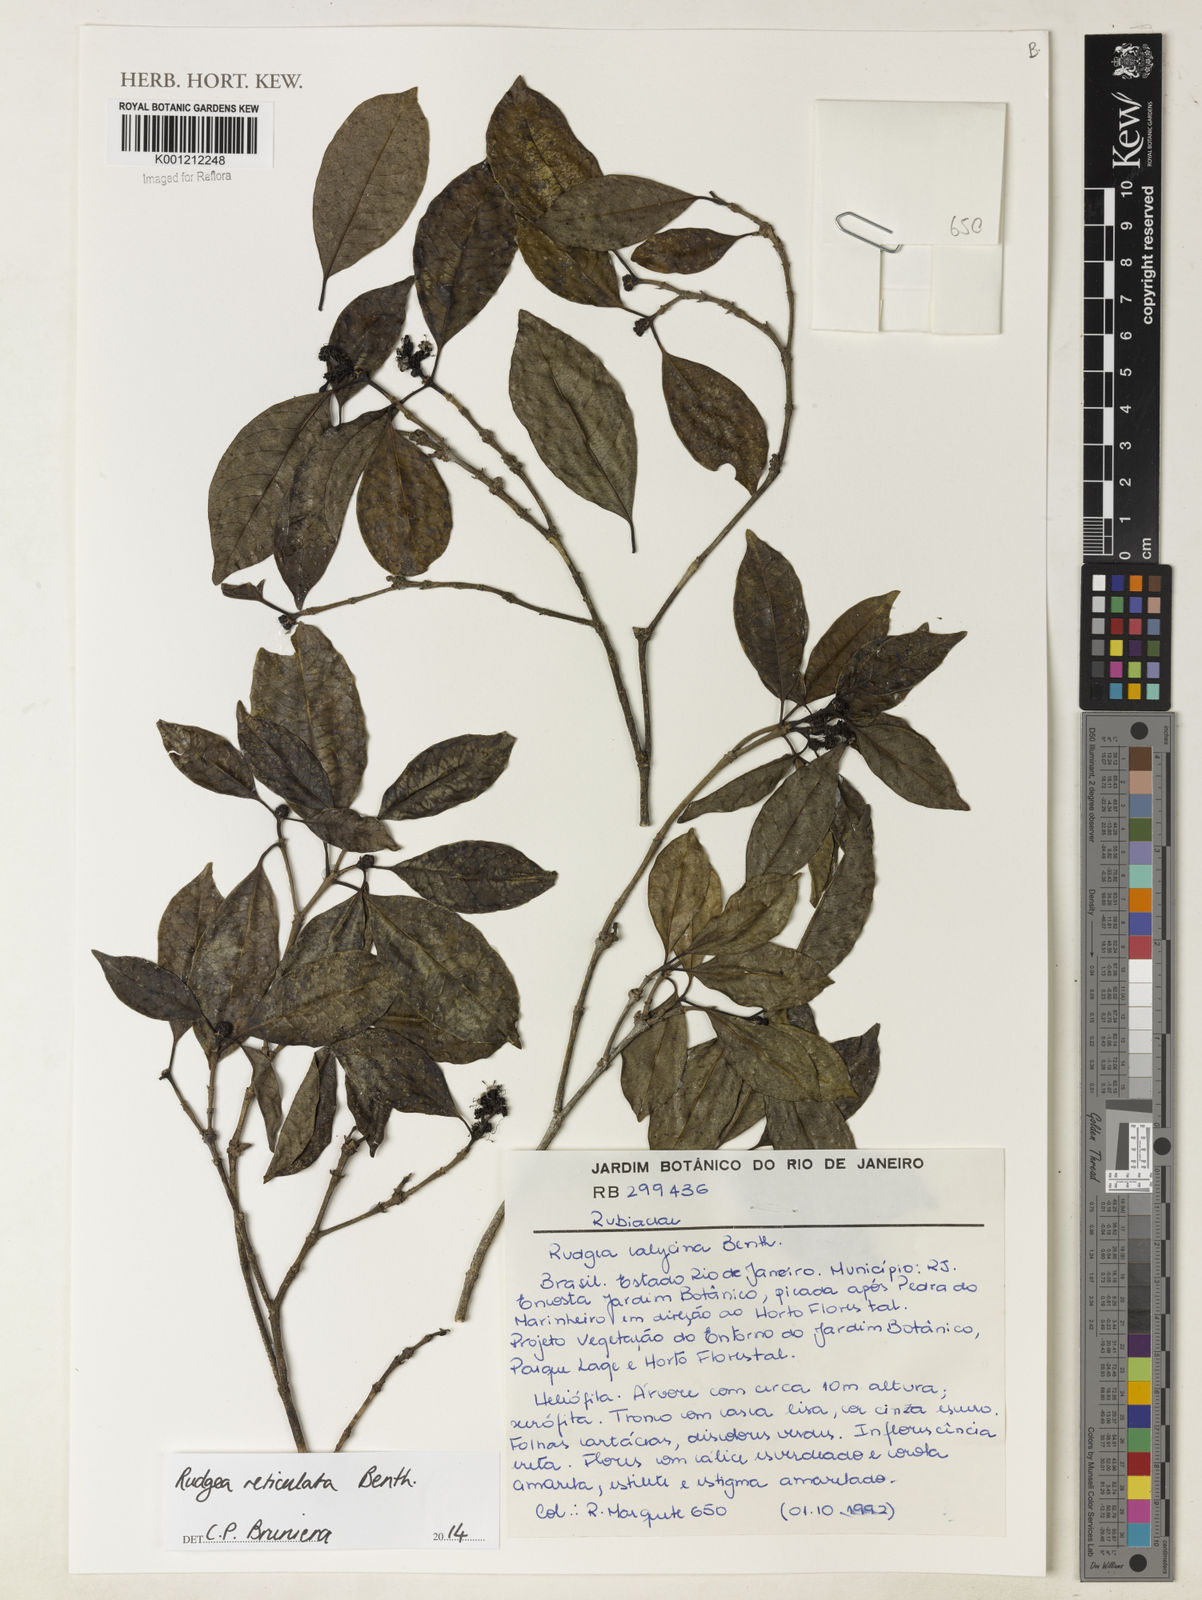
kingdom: Plantae
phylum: Tracheophyta
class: Magnoliopsida
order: Gentianales
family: Rubiaceae
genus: Rudgea
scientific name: Rudgea reticulata
